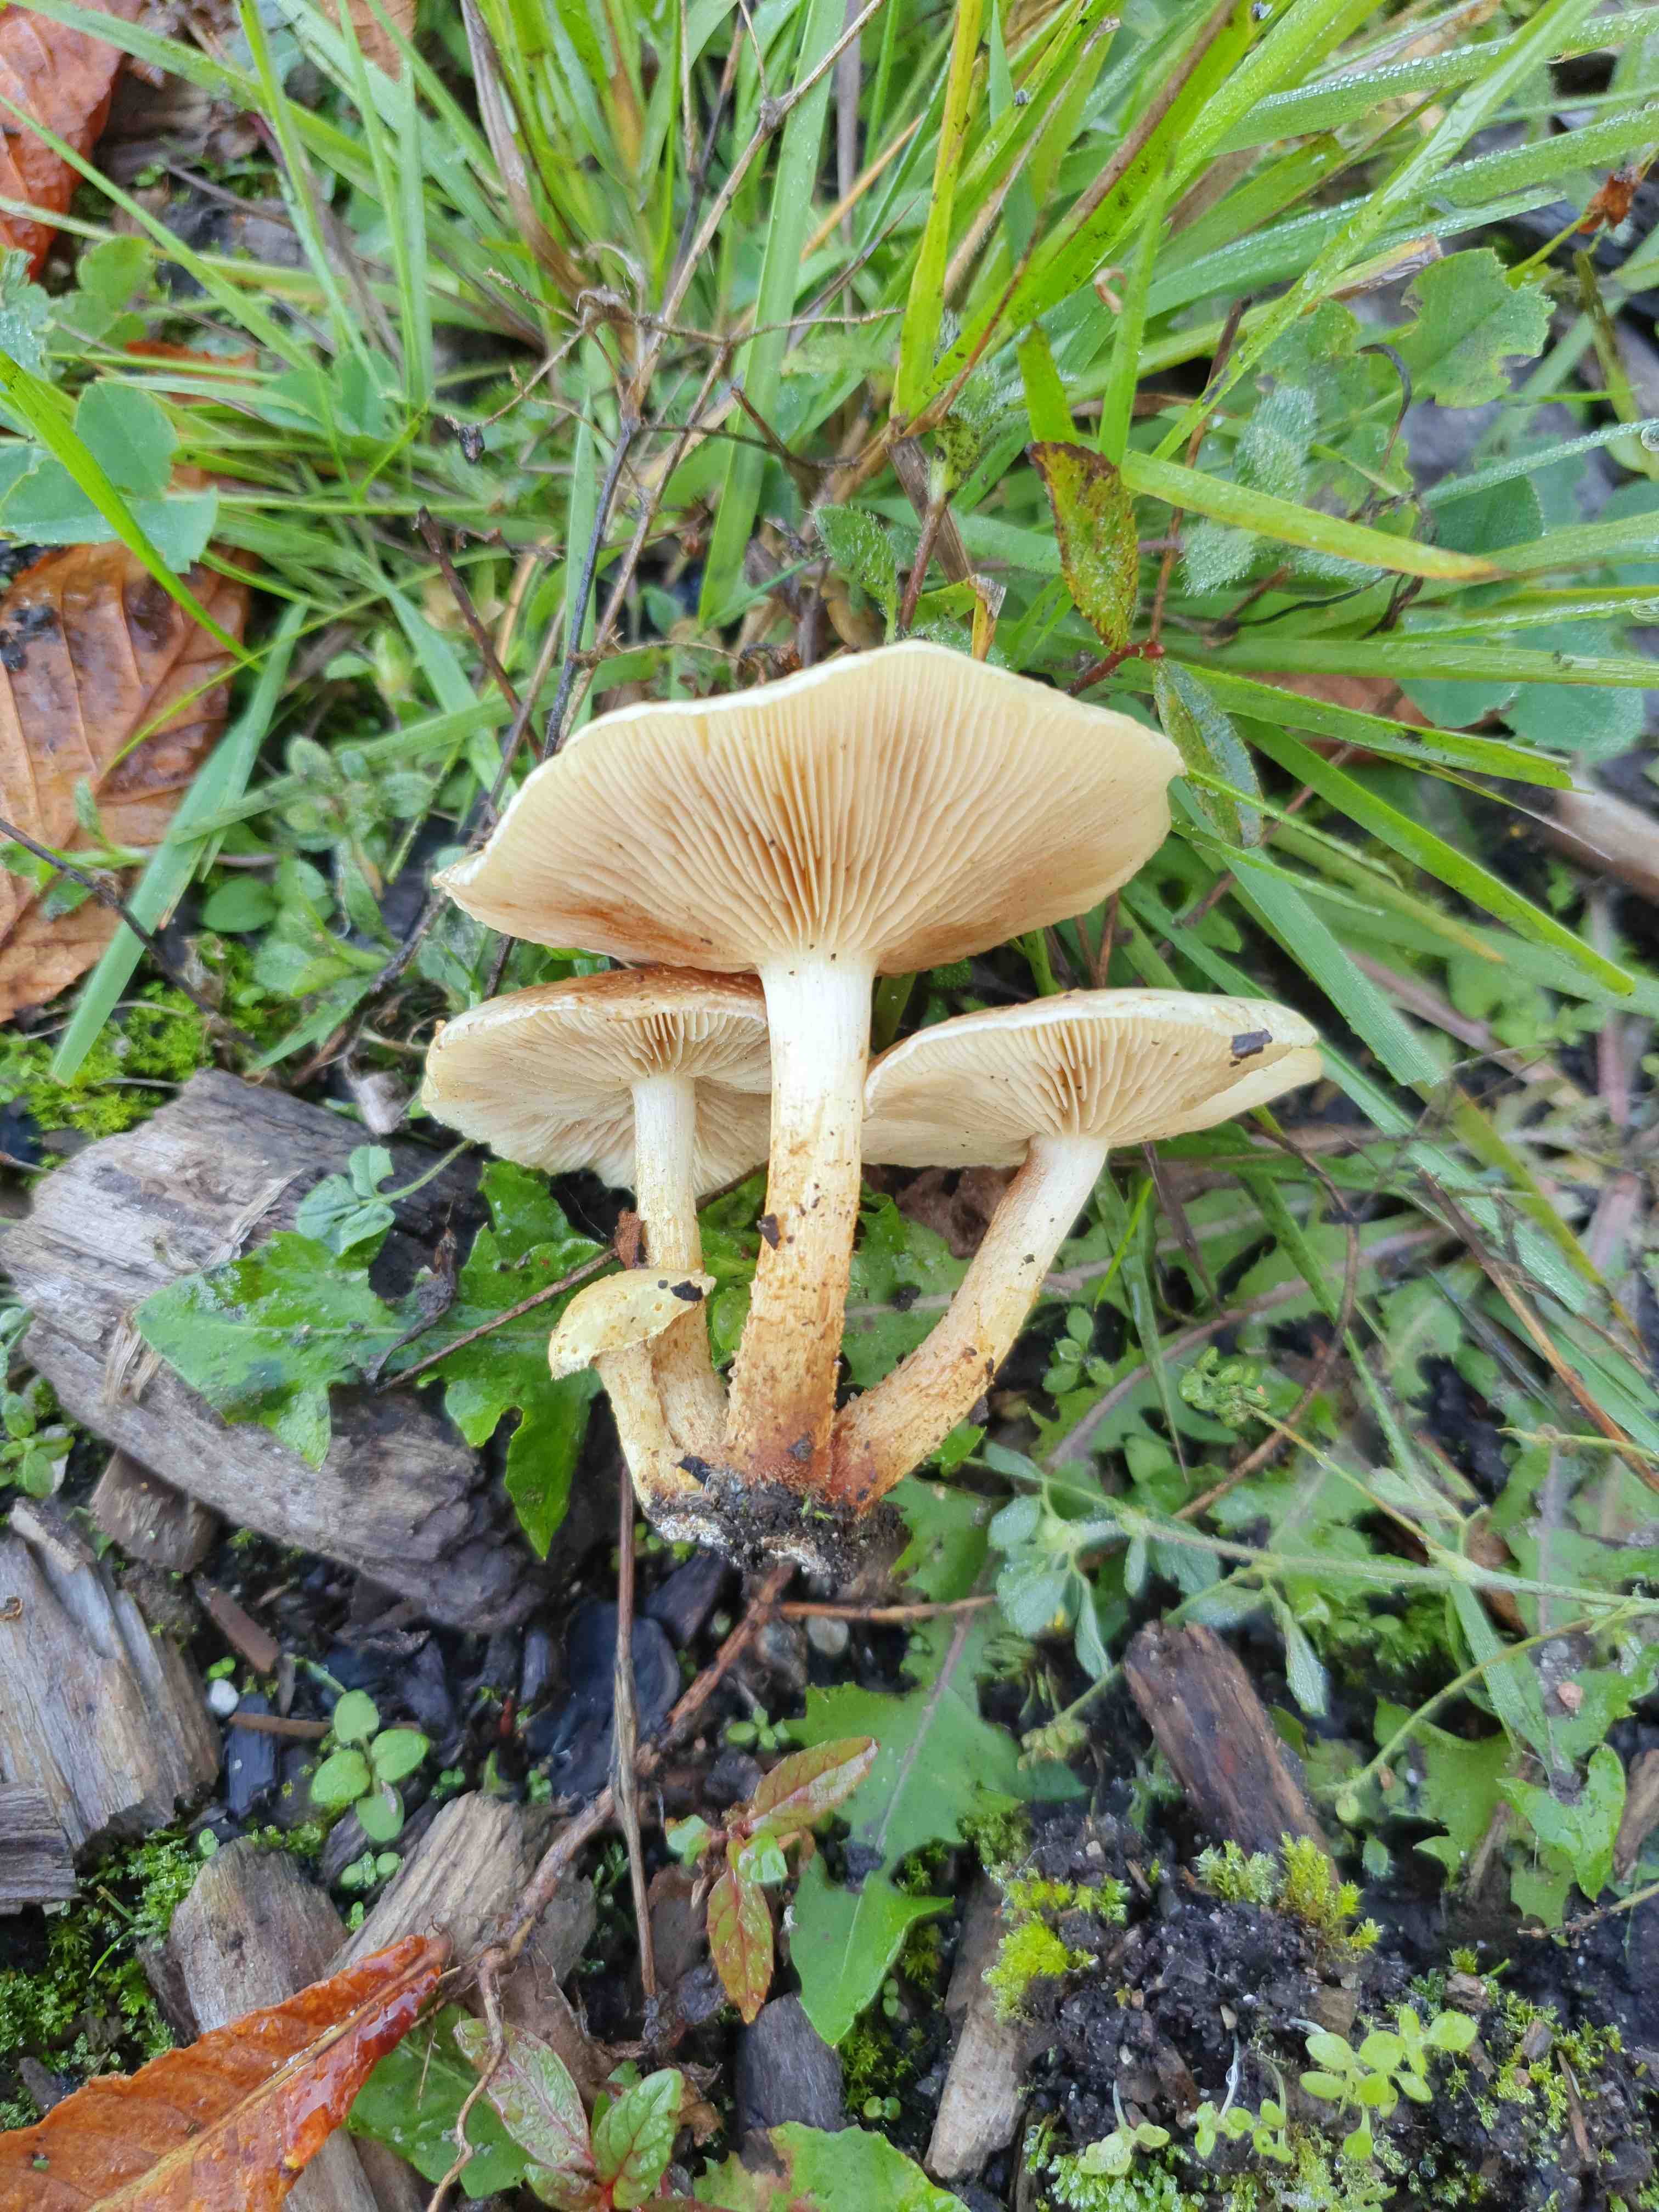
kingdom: Fungi
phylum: Basidiomycota
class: Agaricomycetes
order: Agaricales
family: Strophariaceae
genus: Pholiota
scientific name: Pholiota gummosa
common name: grøngul skælhat
